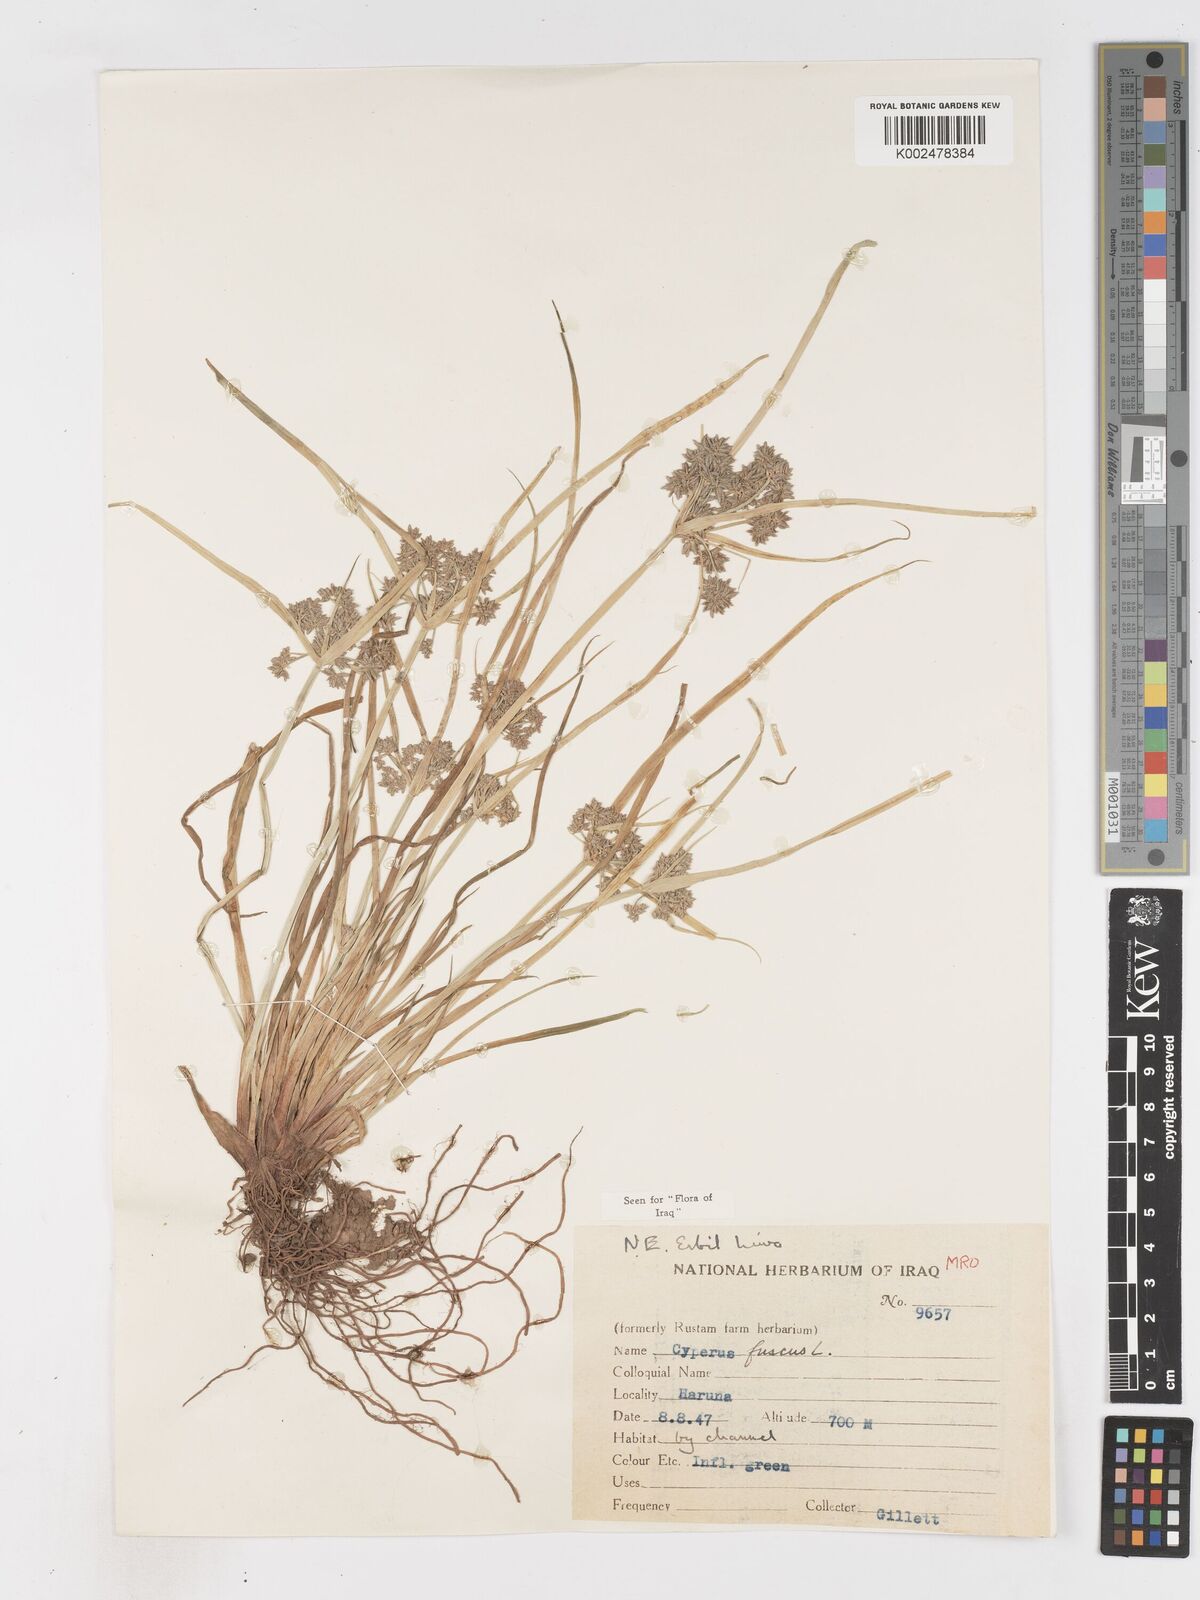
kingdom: Plantae
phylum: Tracheophyta
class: Liliopsida
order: Poales
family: Cyperaceae
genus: Cyperus
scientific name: Cyperus fuscus
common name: Brown galingale
